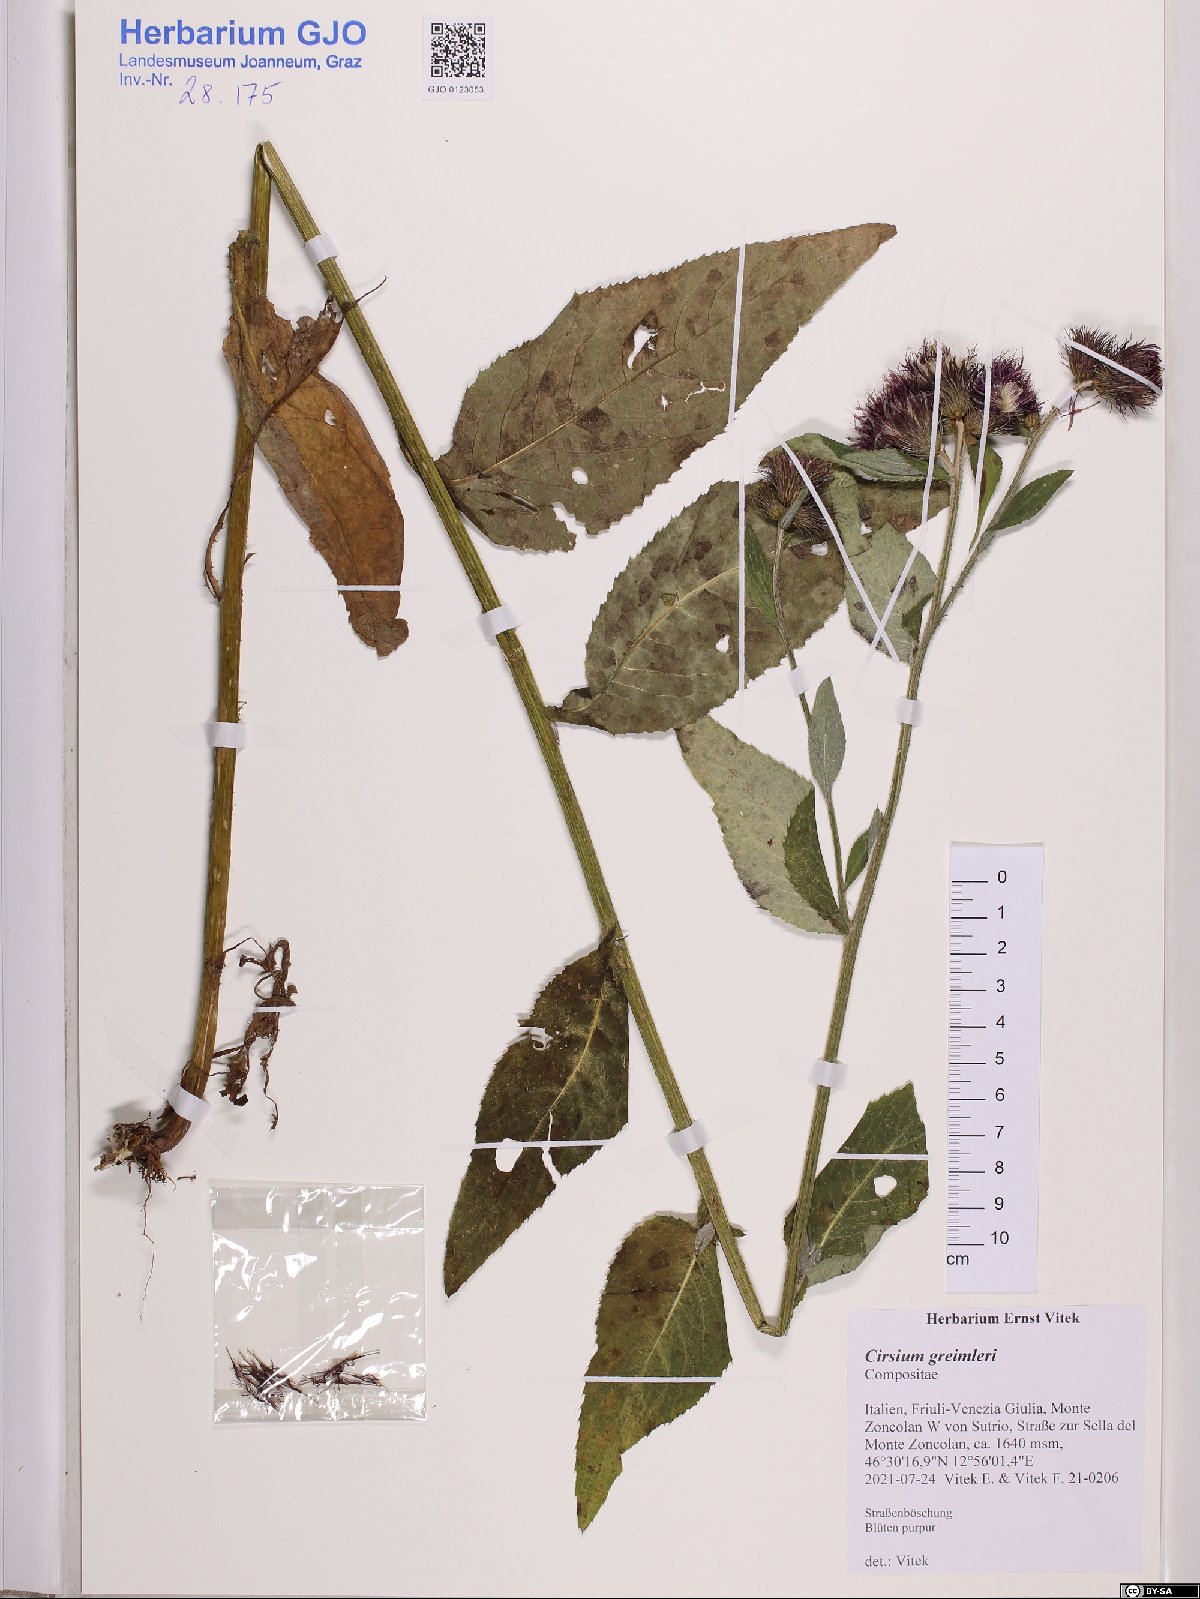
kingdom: Plantae
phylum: Tracheophyta
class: Magnoliopsida
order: Asterales
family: Asteraceae
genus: Cirsium
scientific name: Cirsium greimleri
